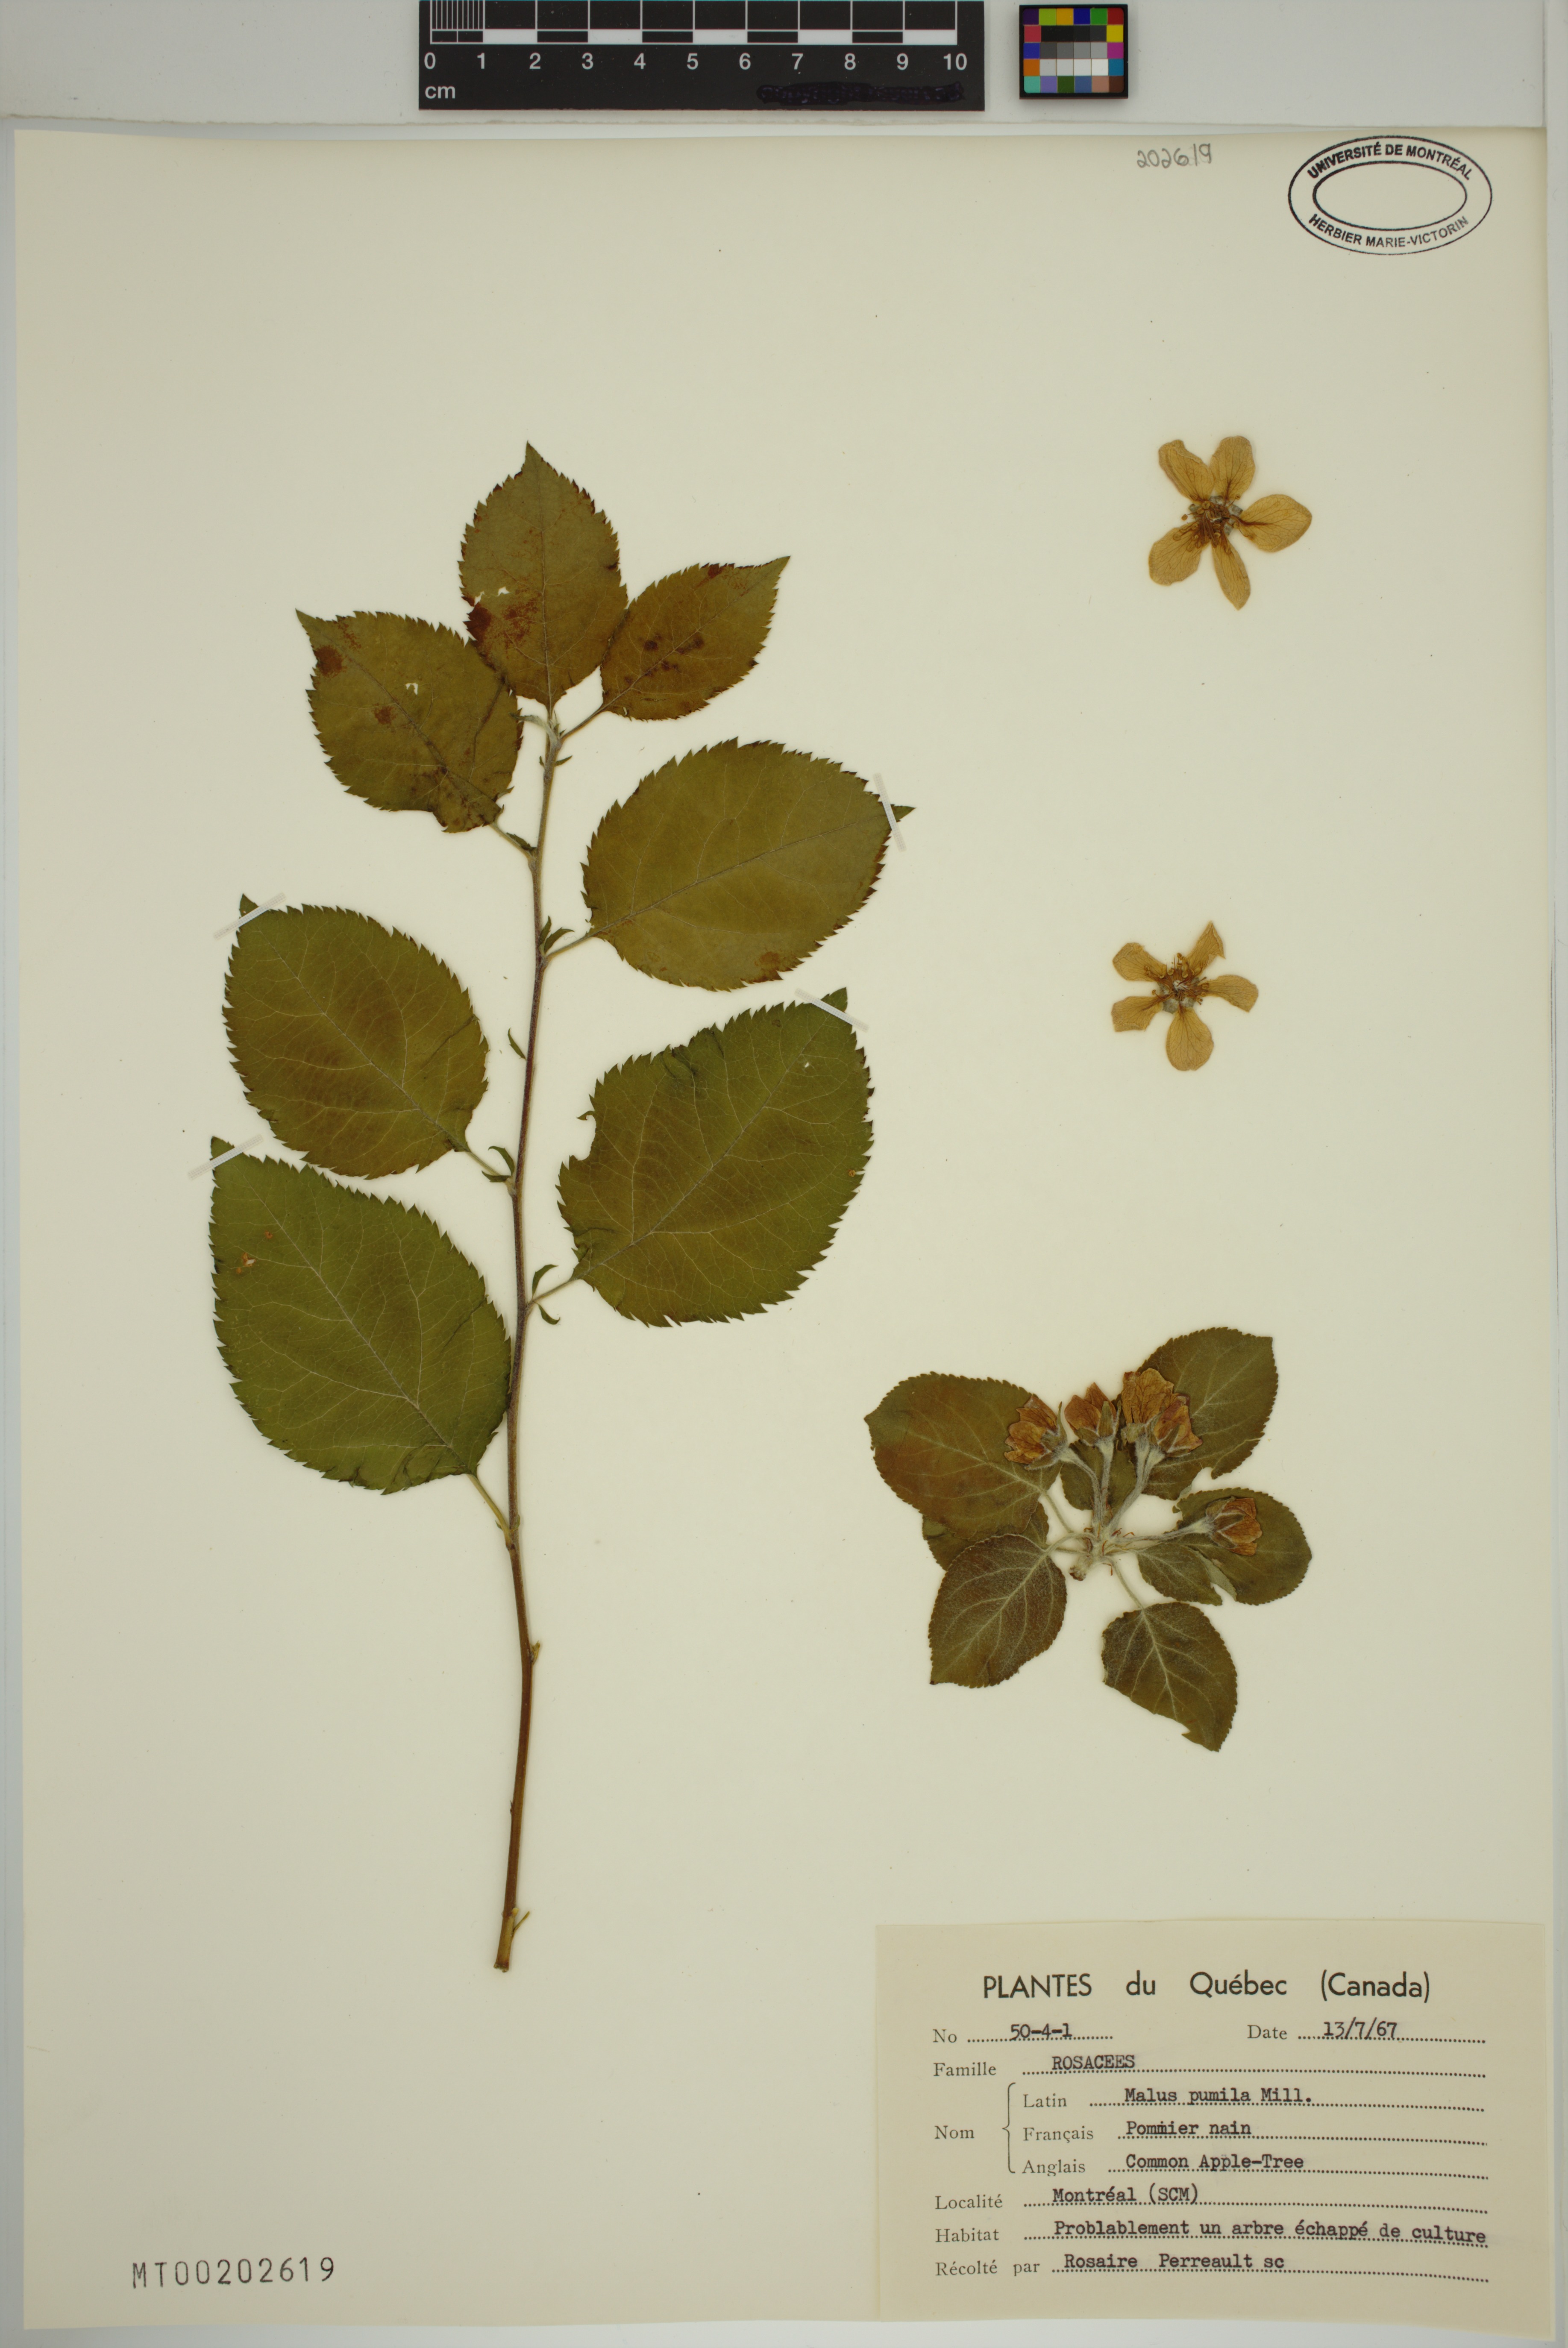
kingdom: Plantae
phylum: Tracheophyta
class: Magnoliopsida
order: Rosales
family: Rosaceae
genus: Malus
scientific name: Malus domestica
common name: Apple
